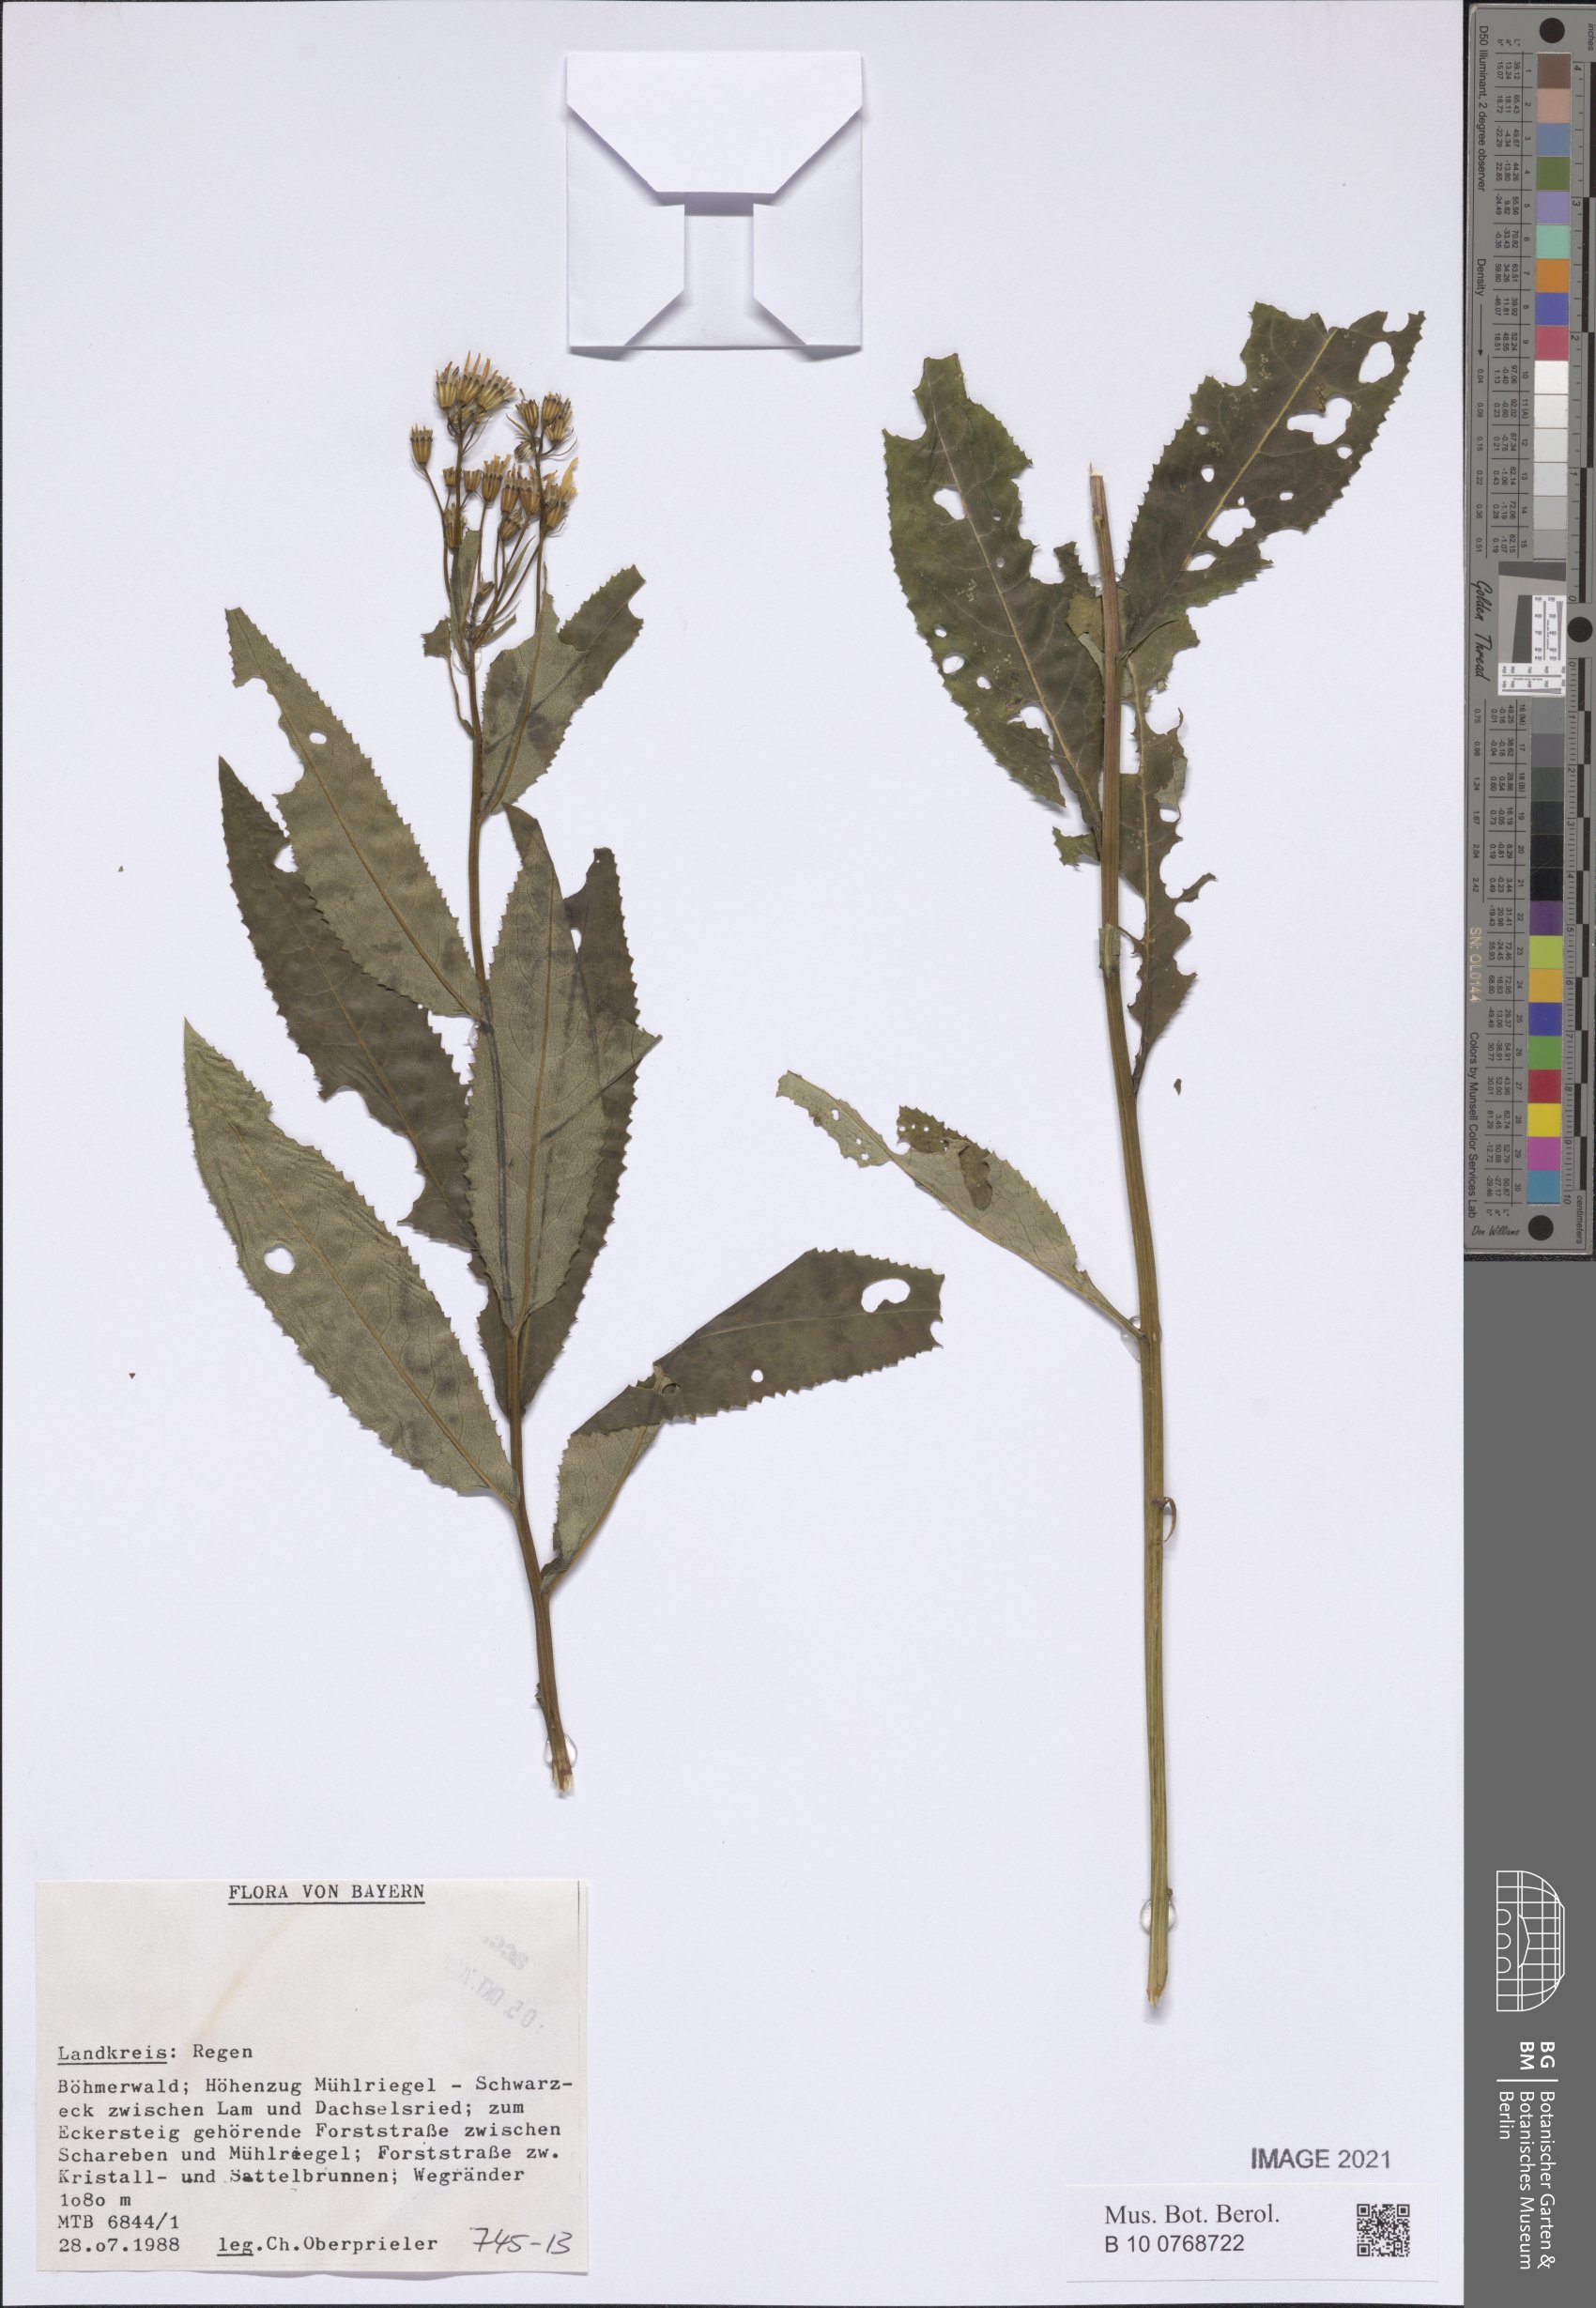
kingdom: Plantae
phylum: Tracheophyta
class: Magnoliopsida
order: Asterales
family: Asteraceae
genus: Senecio
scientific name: Senecio
